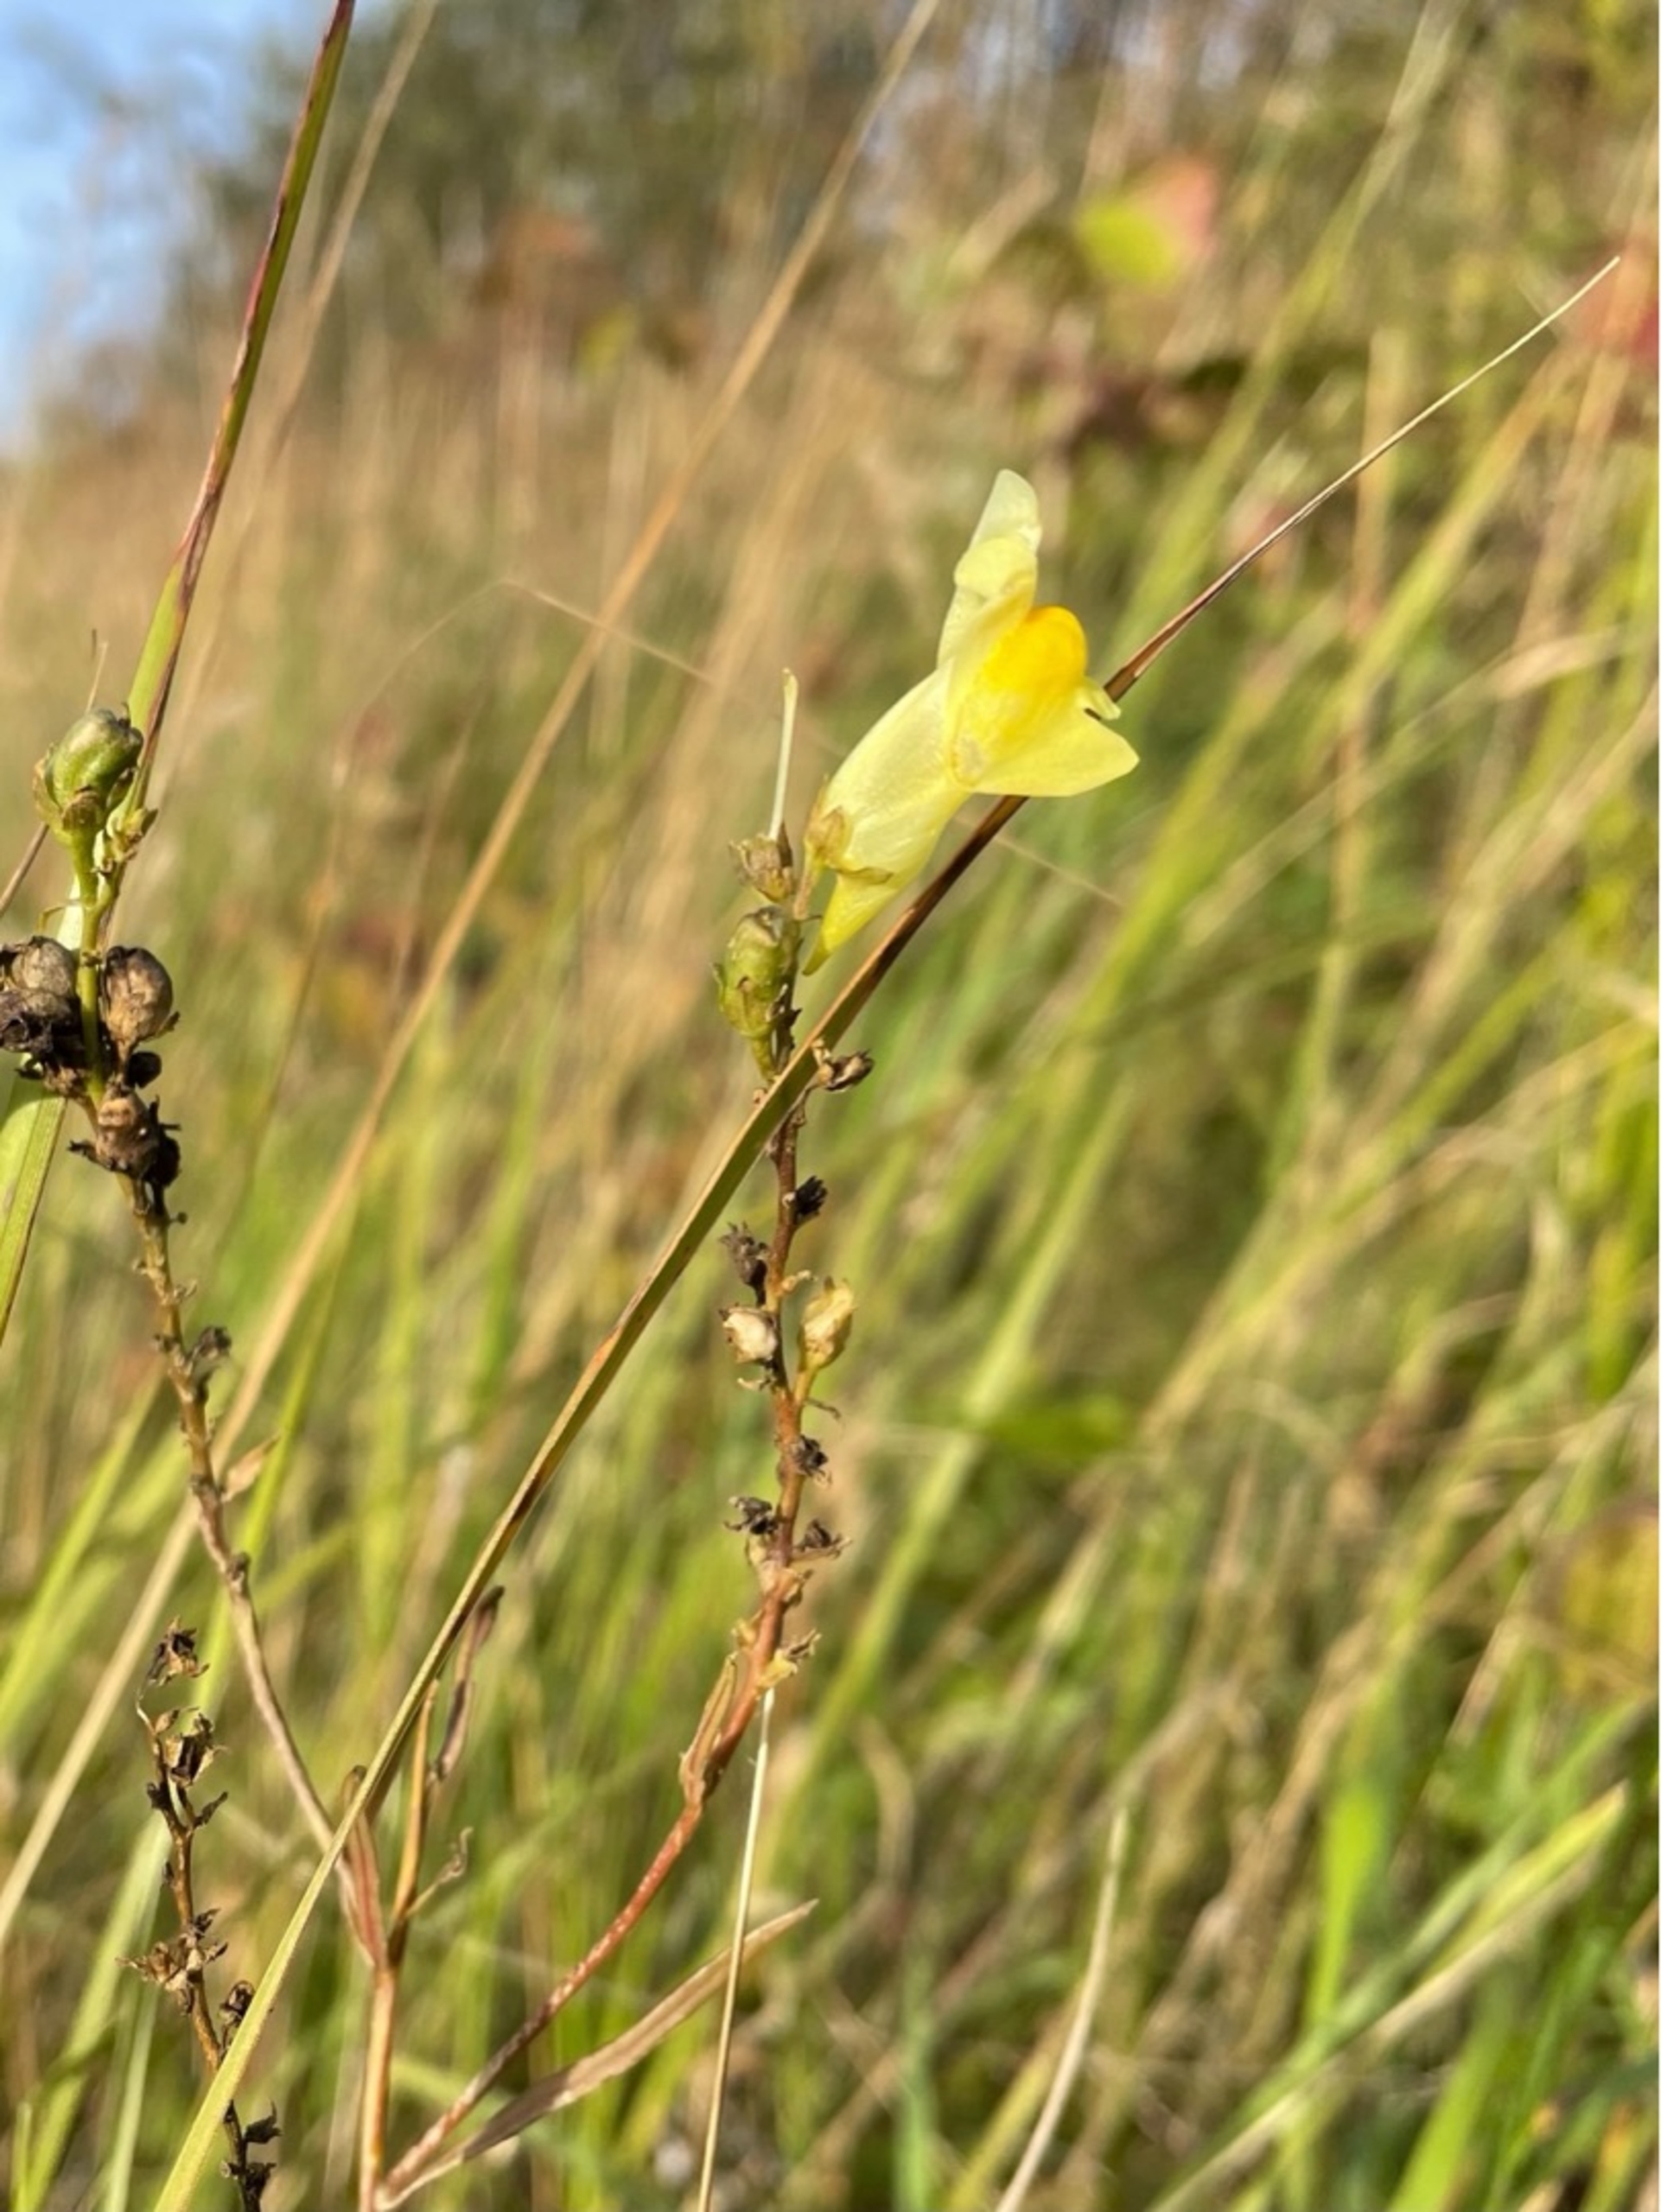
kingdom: Plantae
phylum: Tracheophyta
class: Magnoliopsida
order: Lamiales
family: Plantaginaceae
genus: Linaria
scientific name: Linaria vulgaris
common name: Almindelig torskemund
